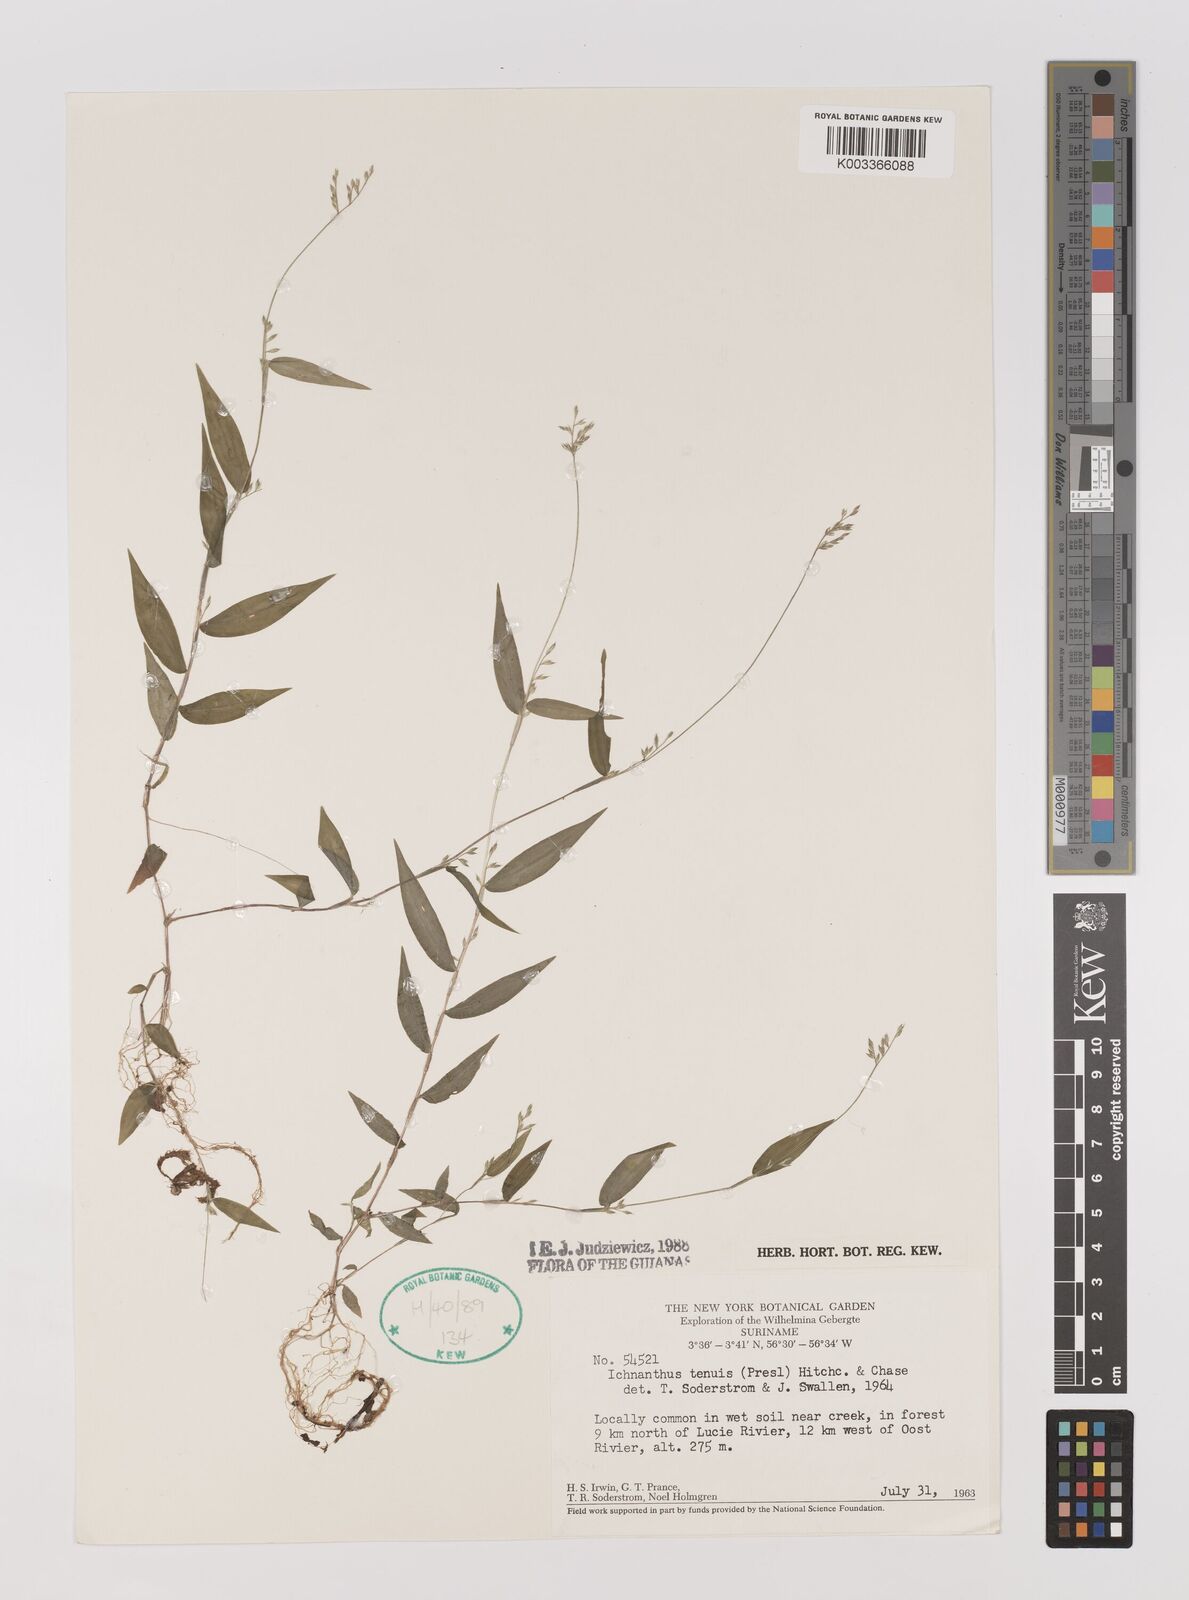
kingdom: Plantae
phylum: Tracheophyta
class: Liliopsida
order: Poales
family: Poaceae
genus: Ichnanthus
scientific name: Ichnanthus tenuis
